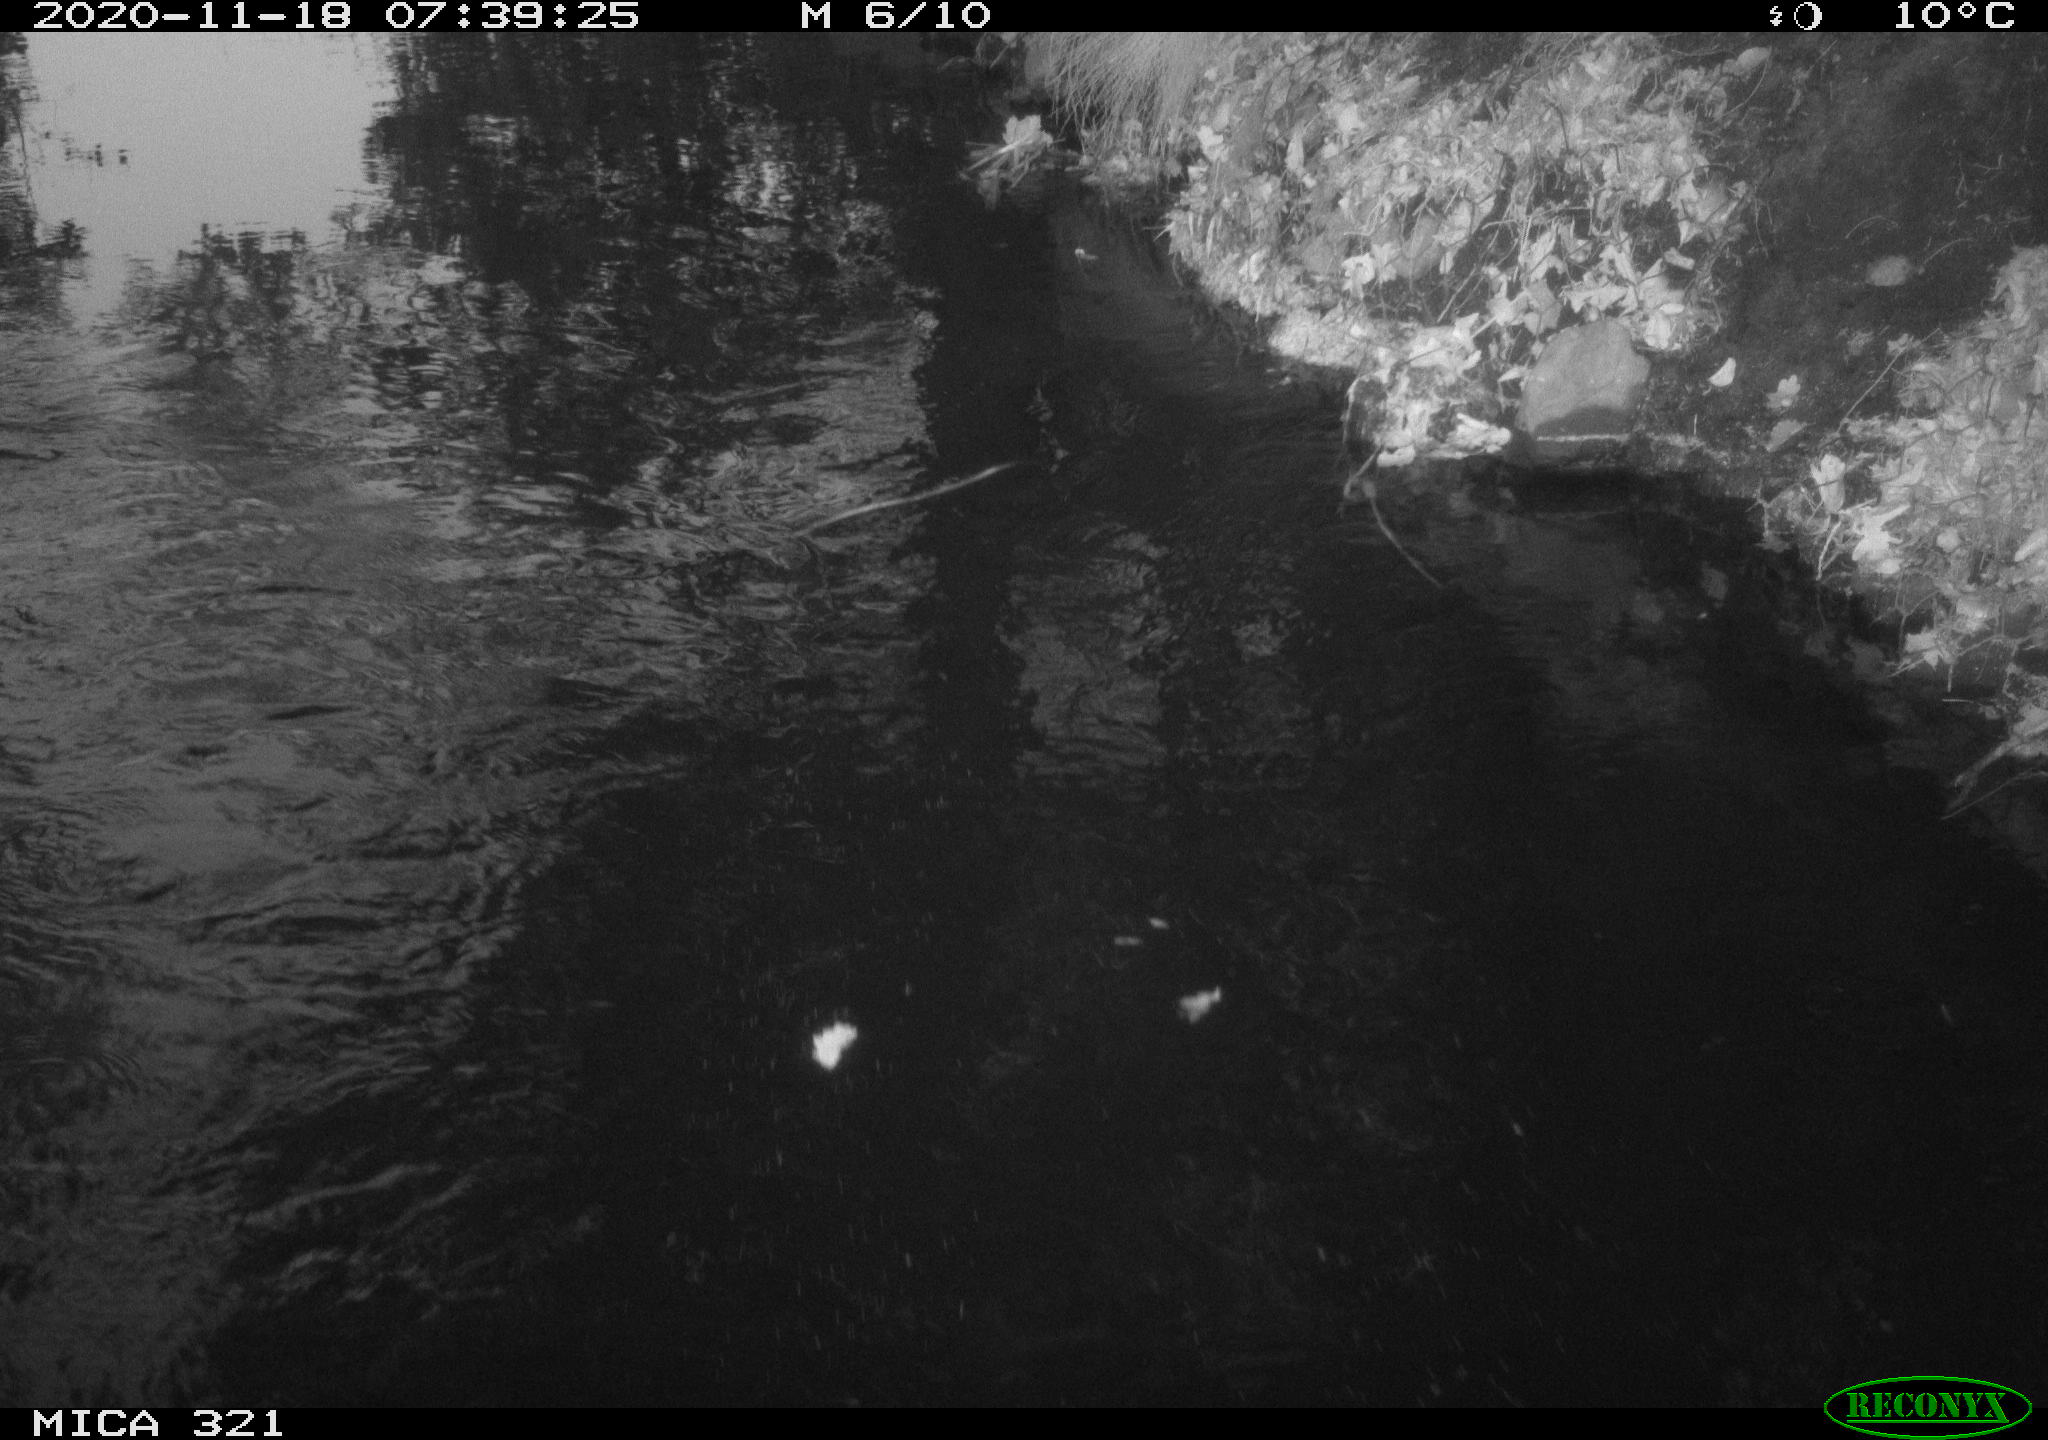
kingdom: Animalia
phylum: Chordata
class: Aves
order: Anseriformes
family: Anatidae
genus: Anas
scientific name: Anas platyrhynchos
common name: Mallard
